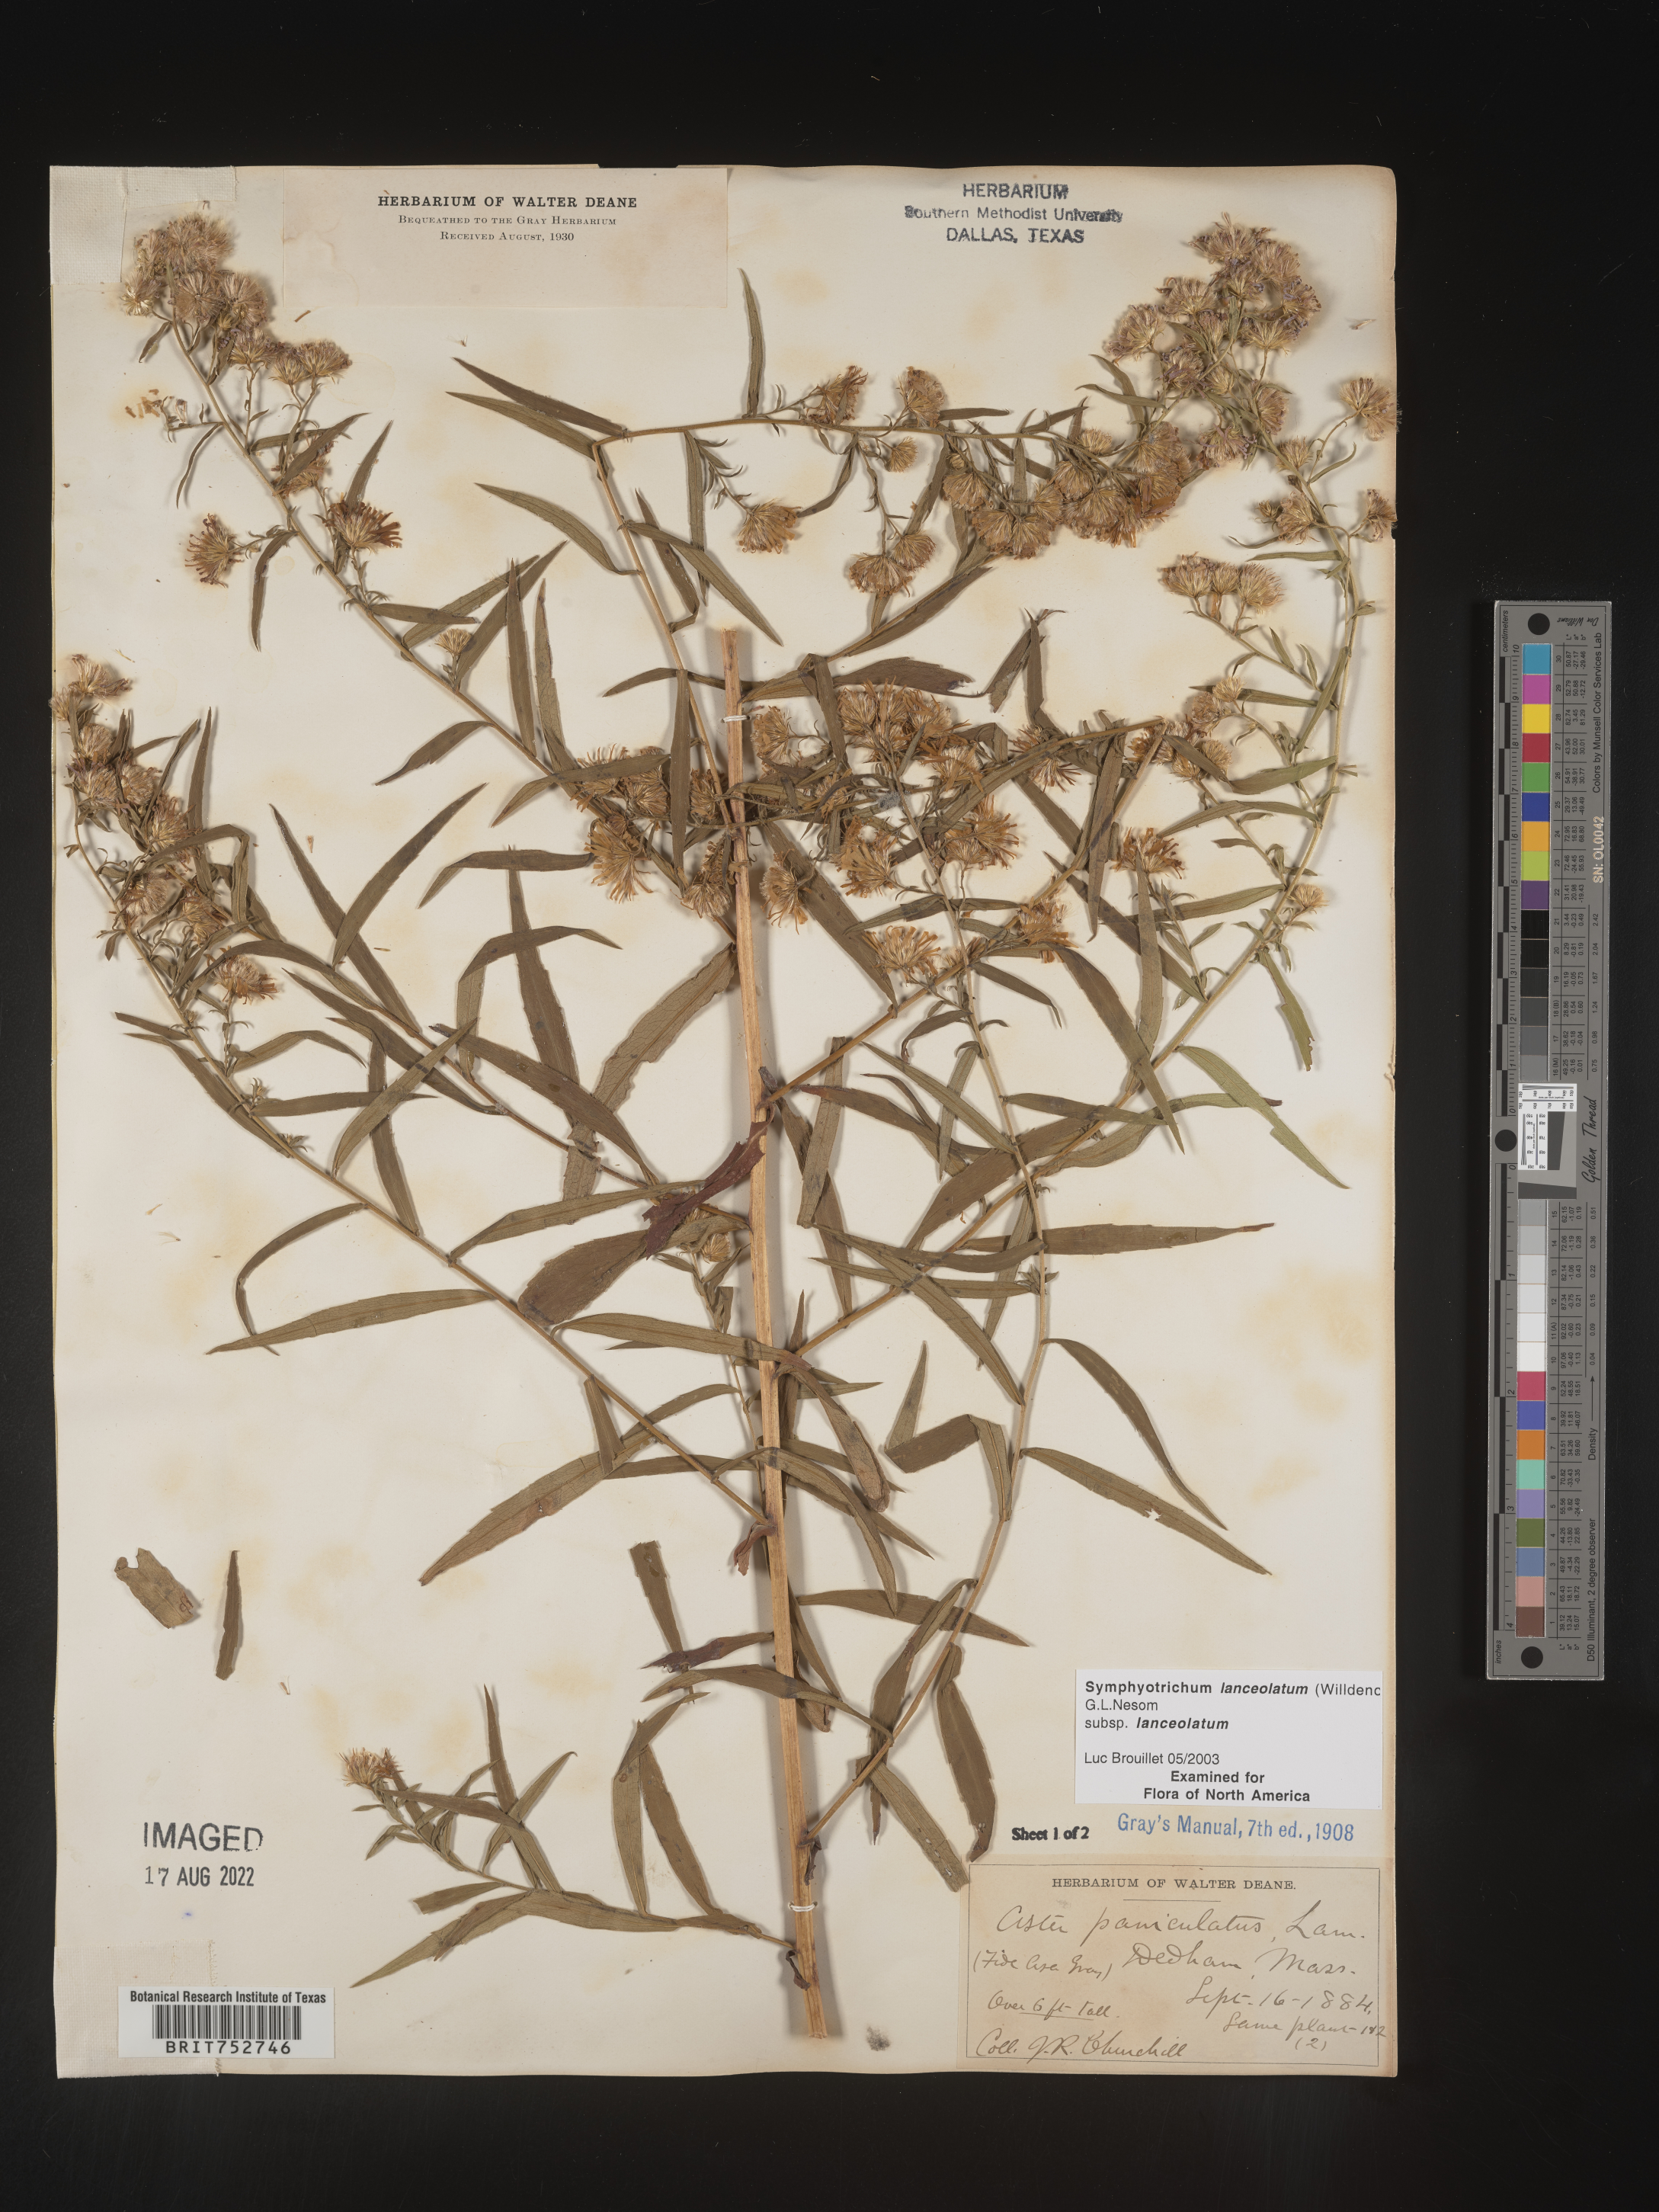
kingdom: Plantae
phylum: Tracheophyta
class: Magnoliopsida
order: Asterales
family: Asteraceae
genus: Symphyotrichum
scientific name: Symphyotrichum lanceolatum
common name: Panicled aster
